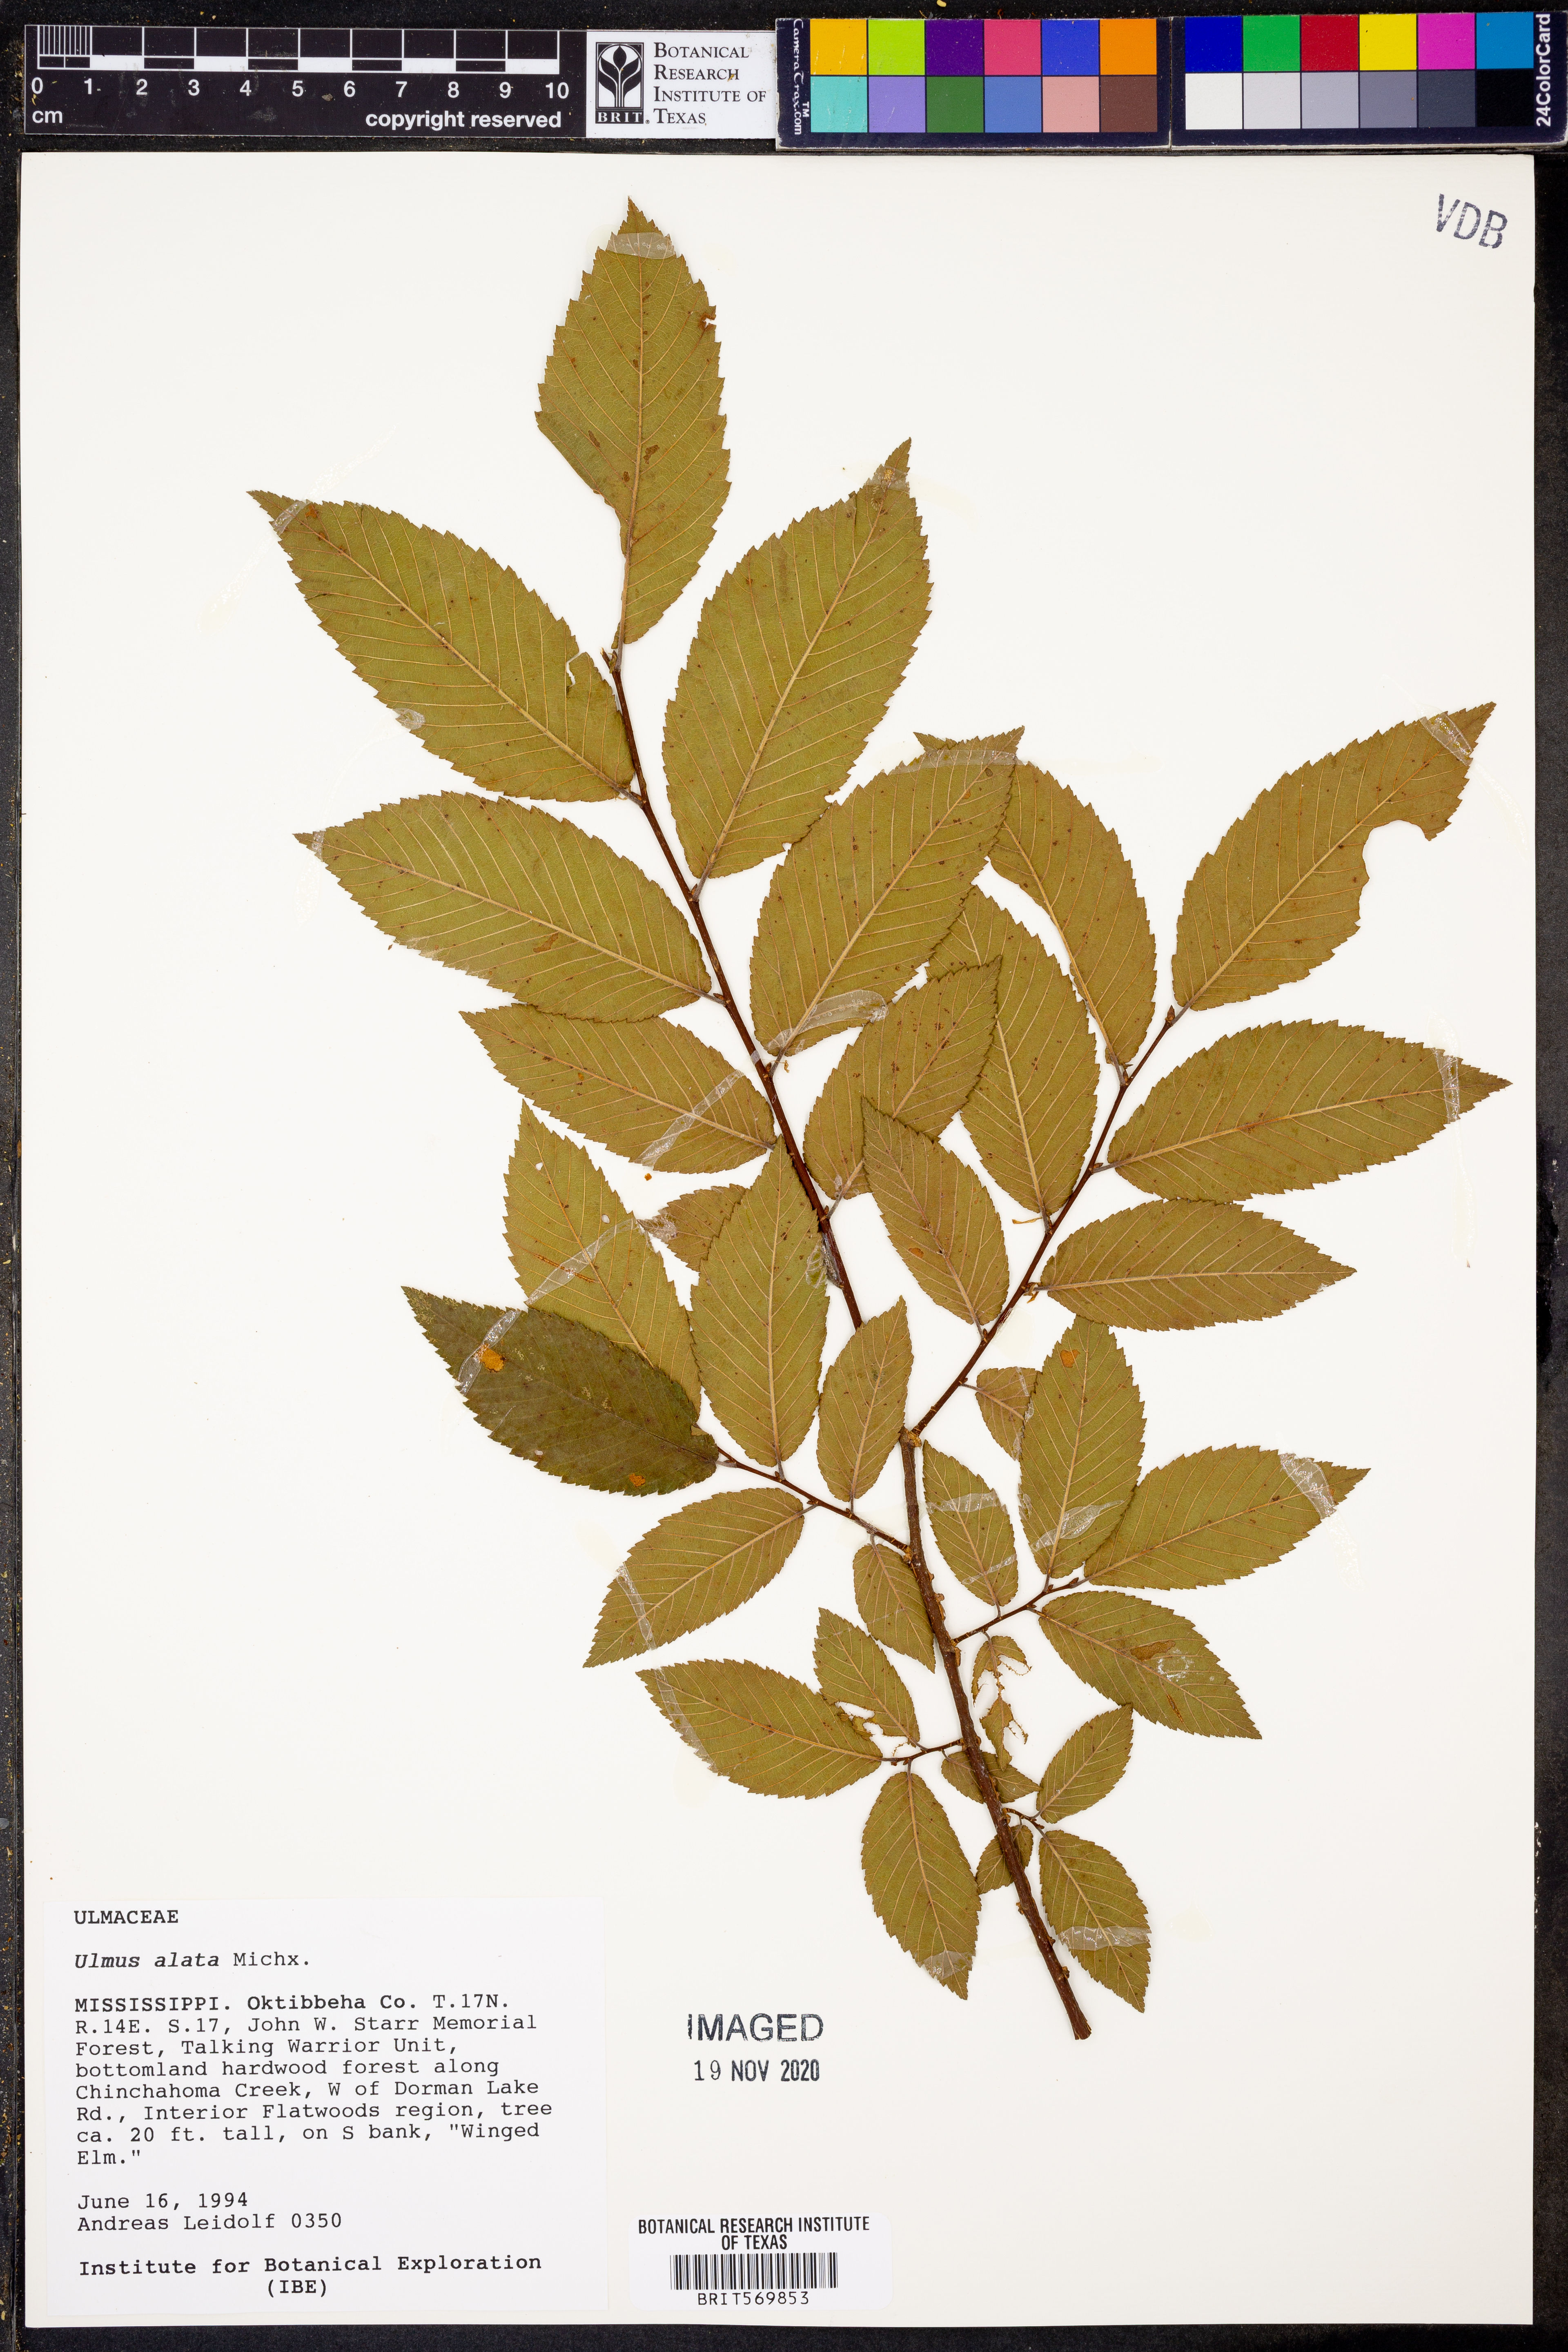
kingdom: Plantae
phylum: Tracheophyta
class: Magnoliopsida
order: Rosales
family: Ulmaceae
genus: Ulmus
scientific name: Ulmus alata
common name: Winged elm
